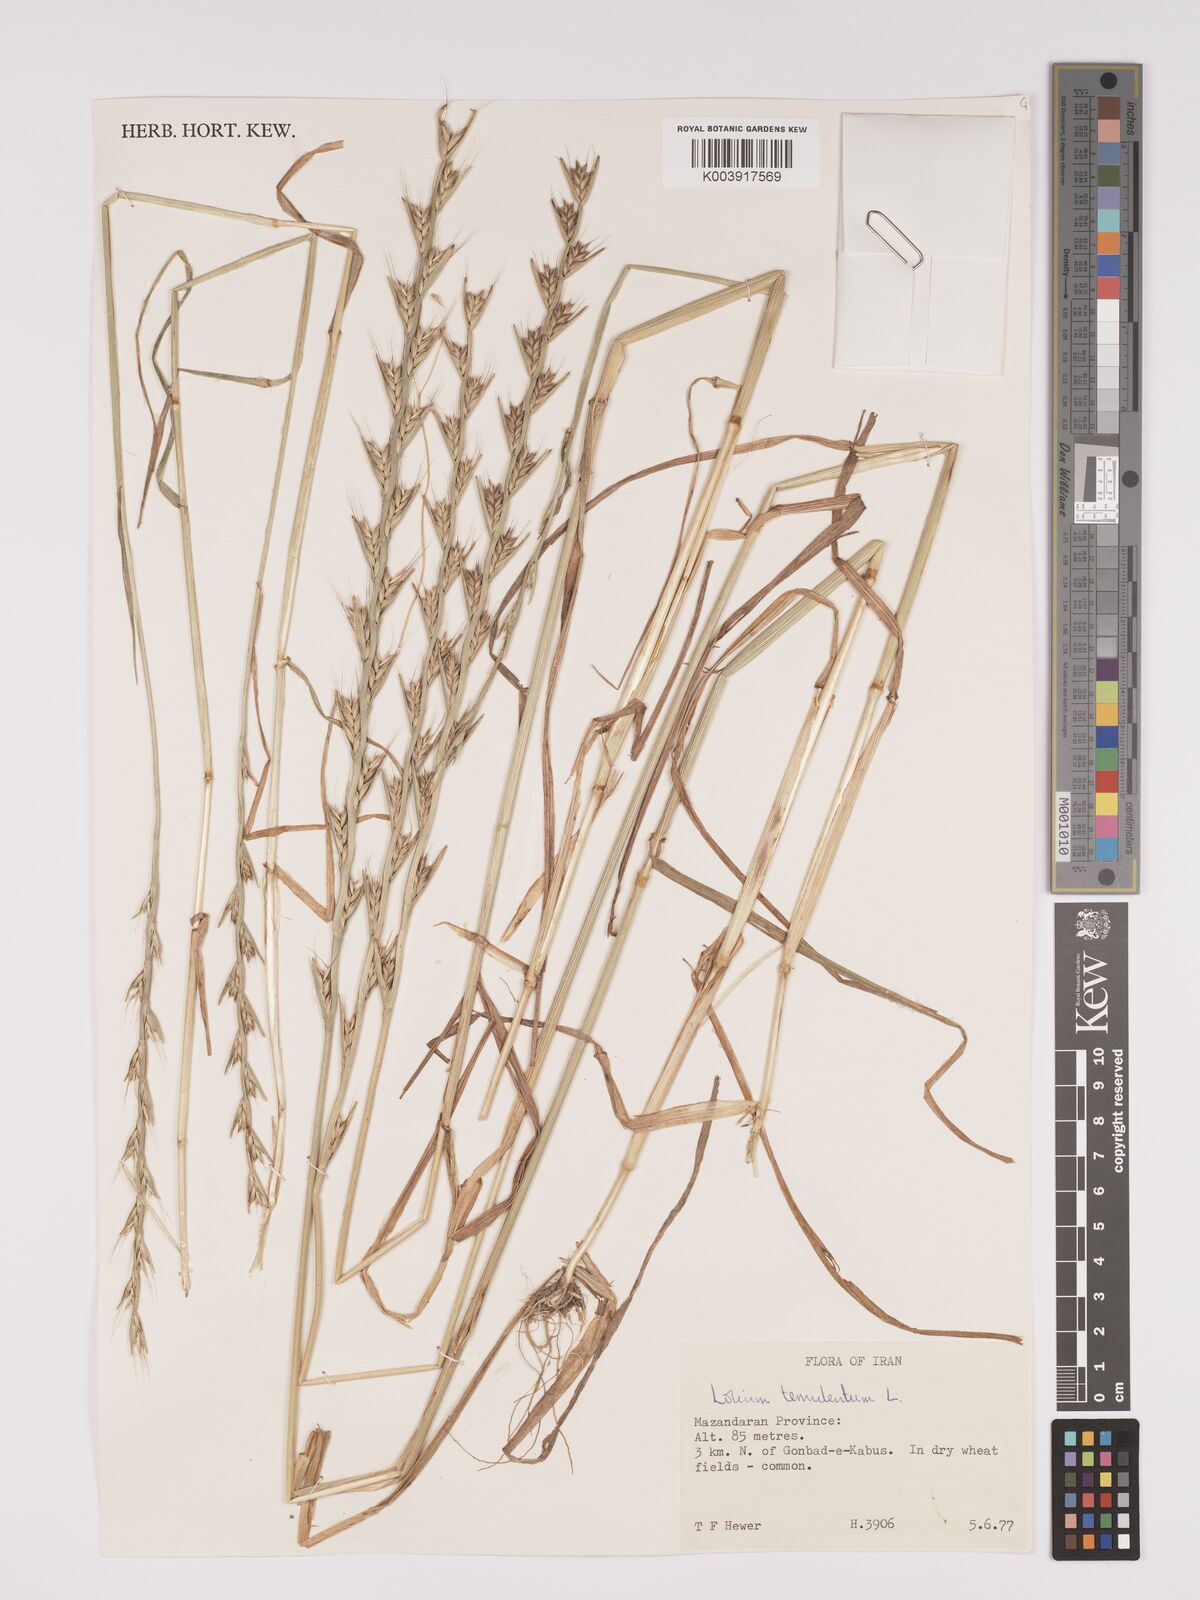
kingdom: Plantae
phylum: Tracheophyta
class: Liliopsida
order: Poales
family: Poaceae
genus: Lolium
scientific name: Lolium temulentum
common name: Darnel
